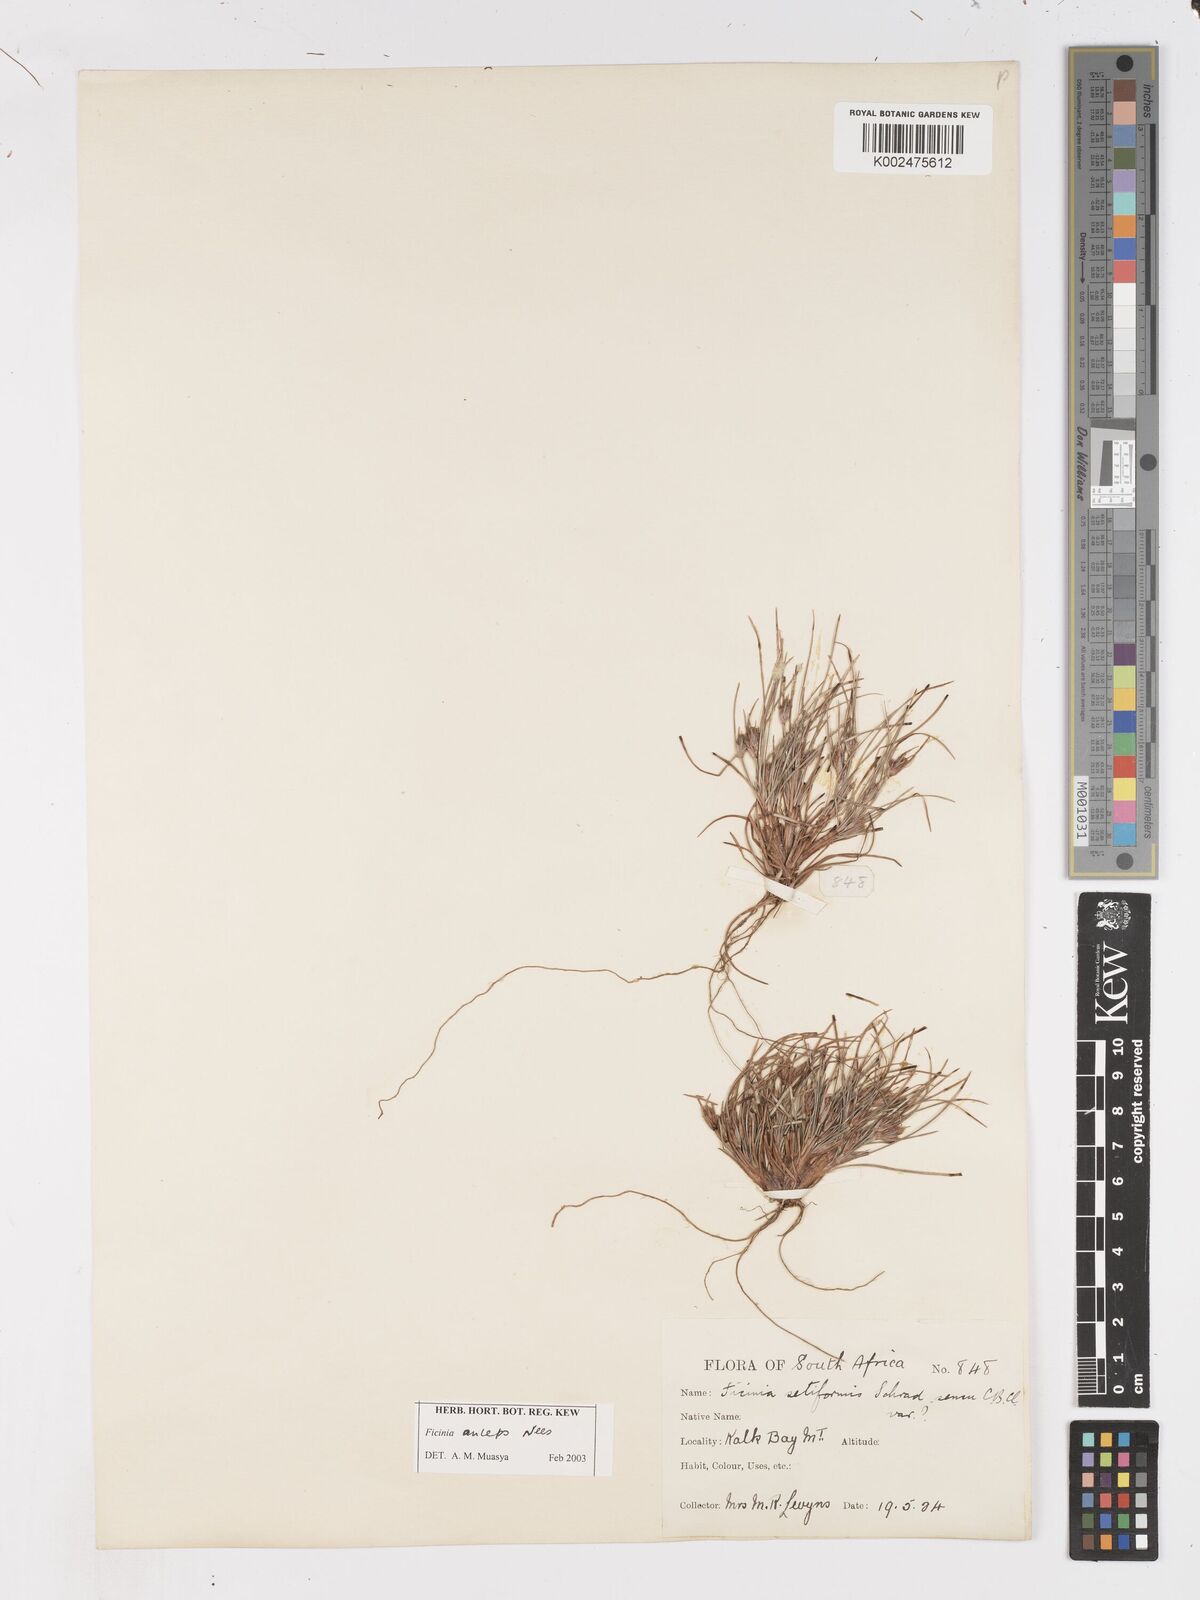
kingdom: Plantae
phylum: Tracheophyta
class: Liliopsida
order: Poales
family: Cyperaceae
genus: Ficinia
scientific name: Ficinia anceps
